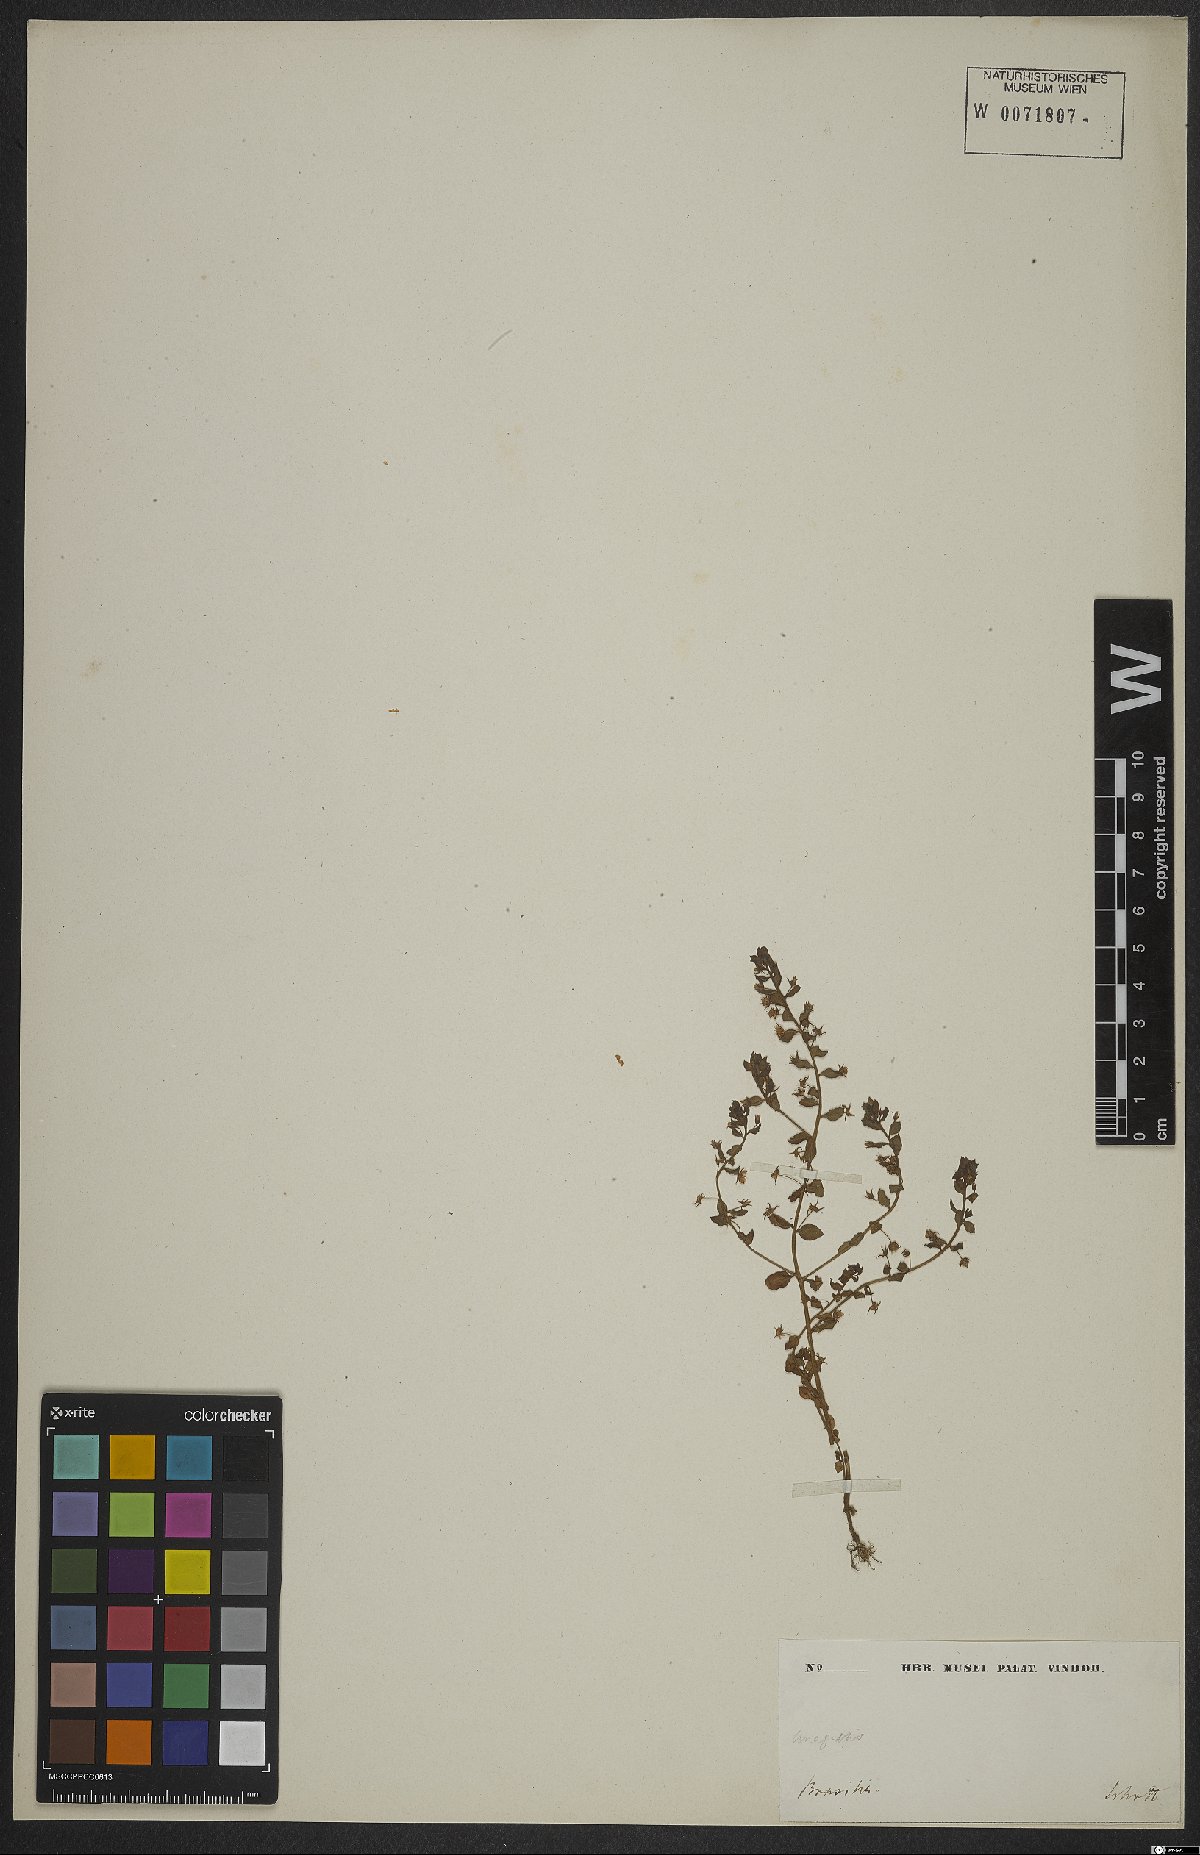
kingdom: Plantae
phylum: Tracheophyta
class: Magnoliopsida
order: Ericales
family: Primulaceae
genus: Lysimachia
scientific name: Lysimachia ovalis
